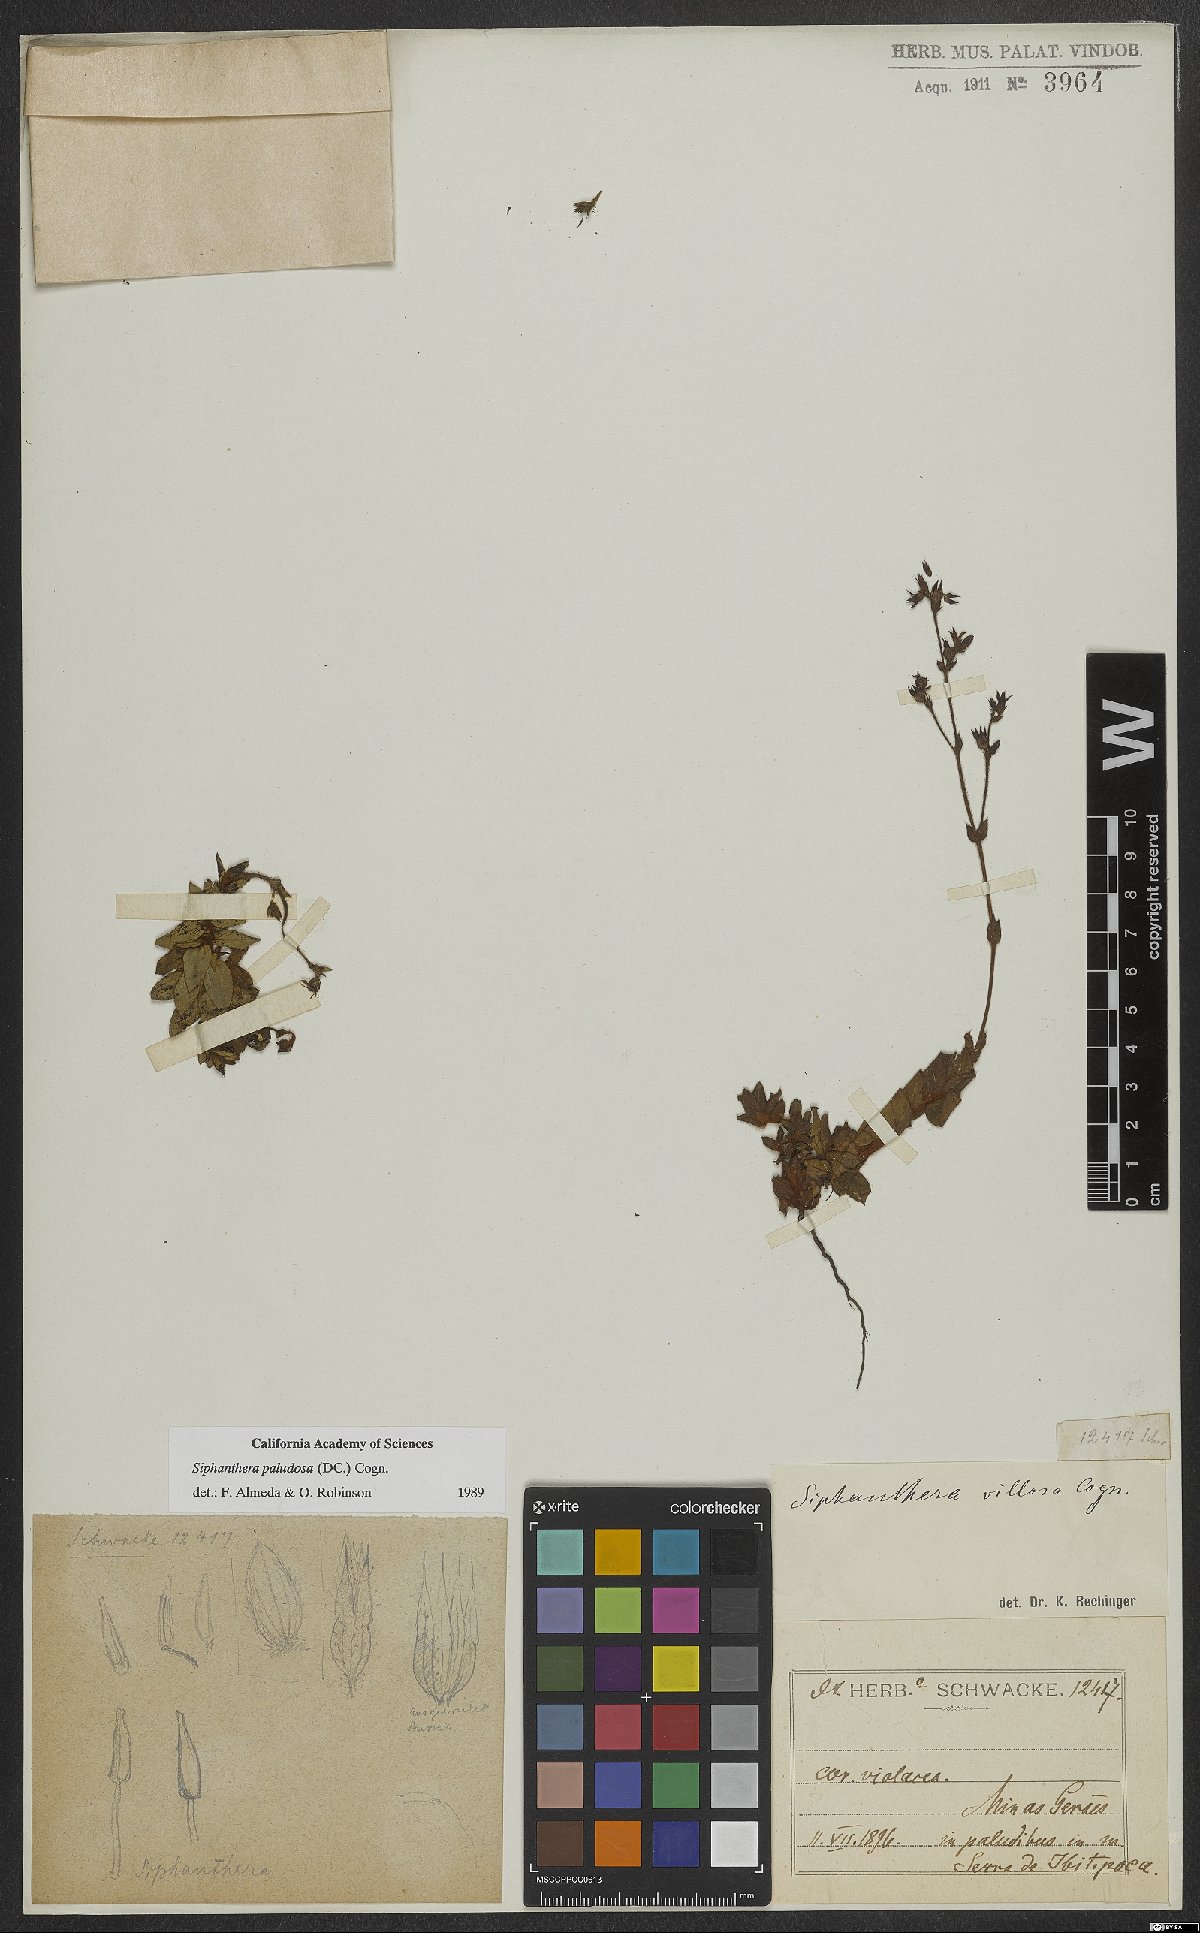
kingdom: Plantae
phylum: Tracheophyta
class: Magnoliopsida
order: Myrtales
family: Melastomataceae
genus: Siphanthera
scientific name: Siphanthera paludosa
